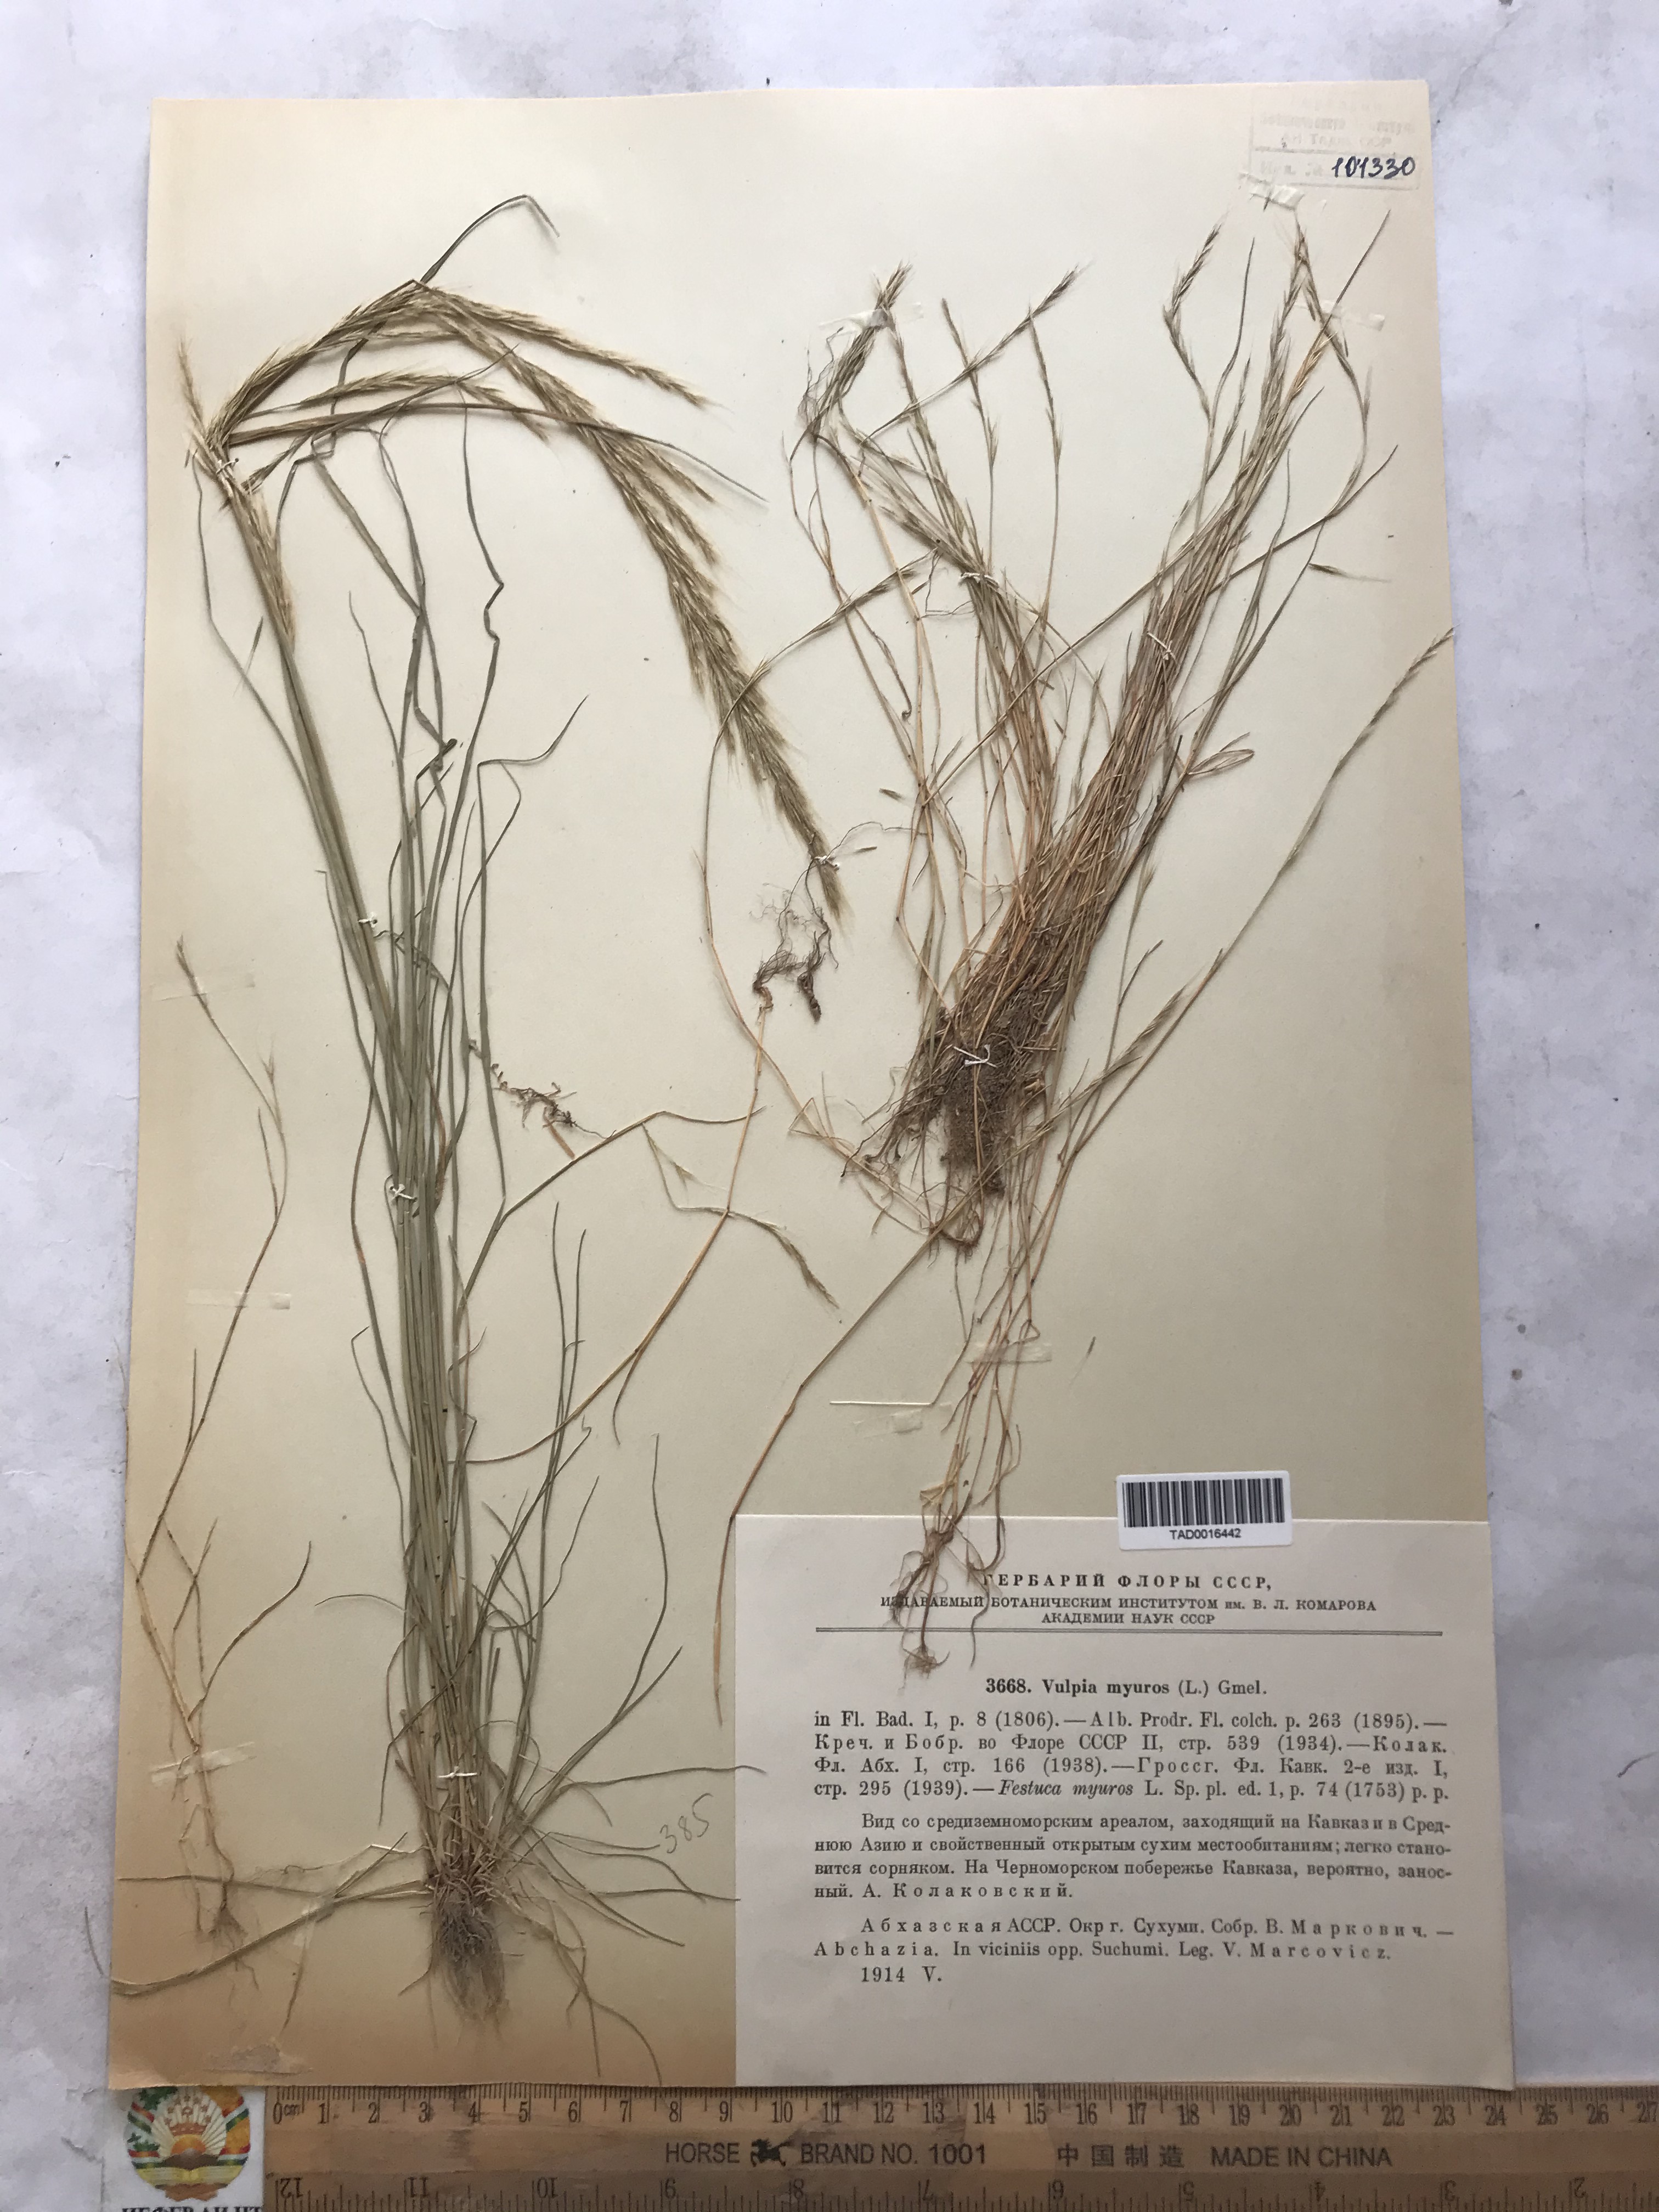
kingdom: Plantae
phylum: Tracheophyta
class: Liliopsida
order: Poales
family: Poaceae
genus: Festuca
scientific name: Festuca myuros
